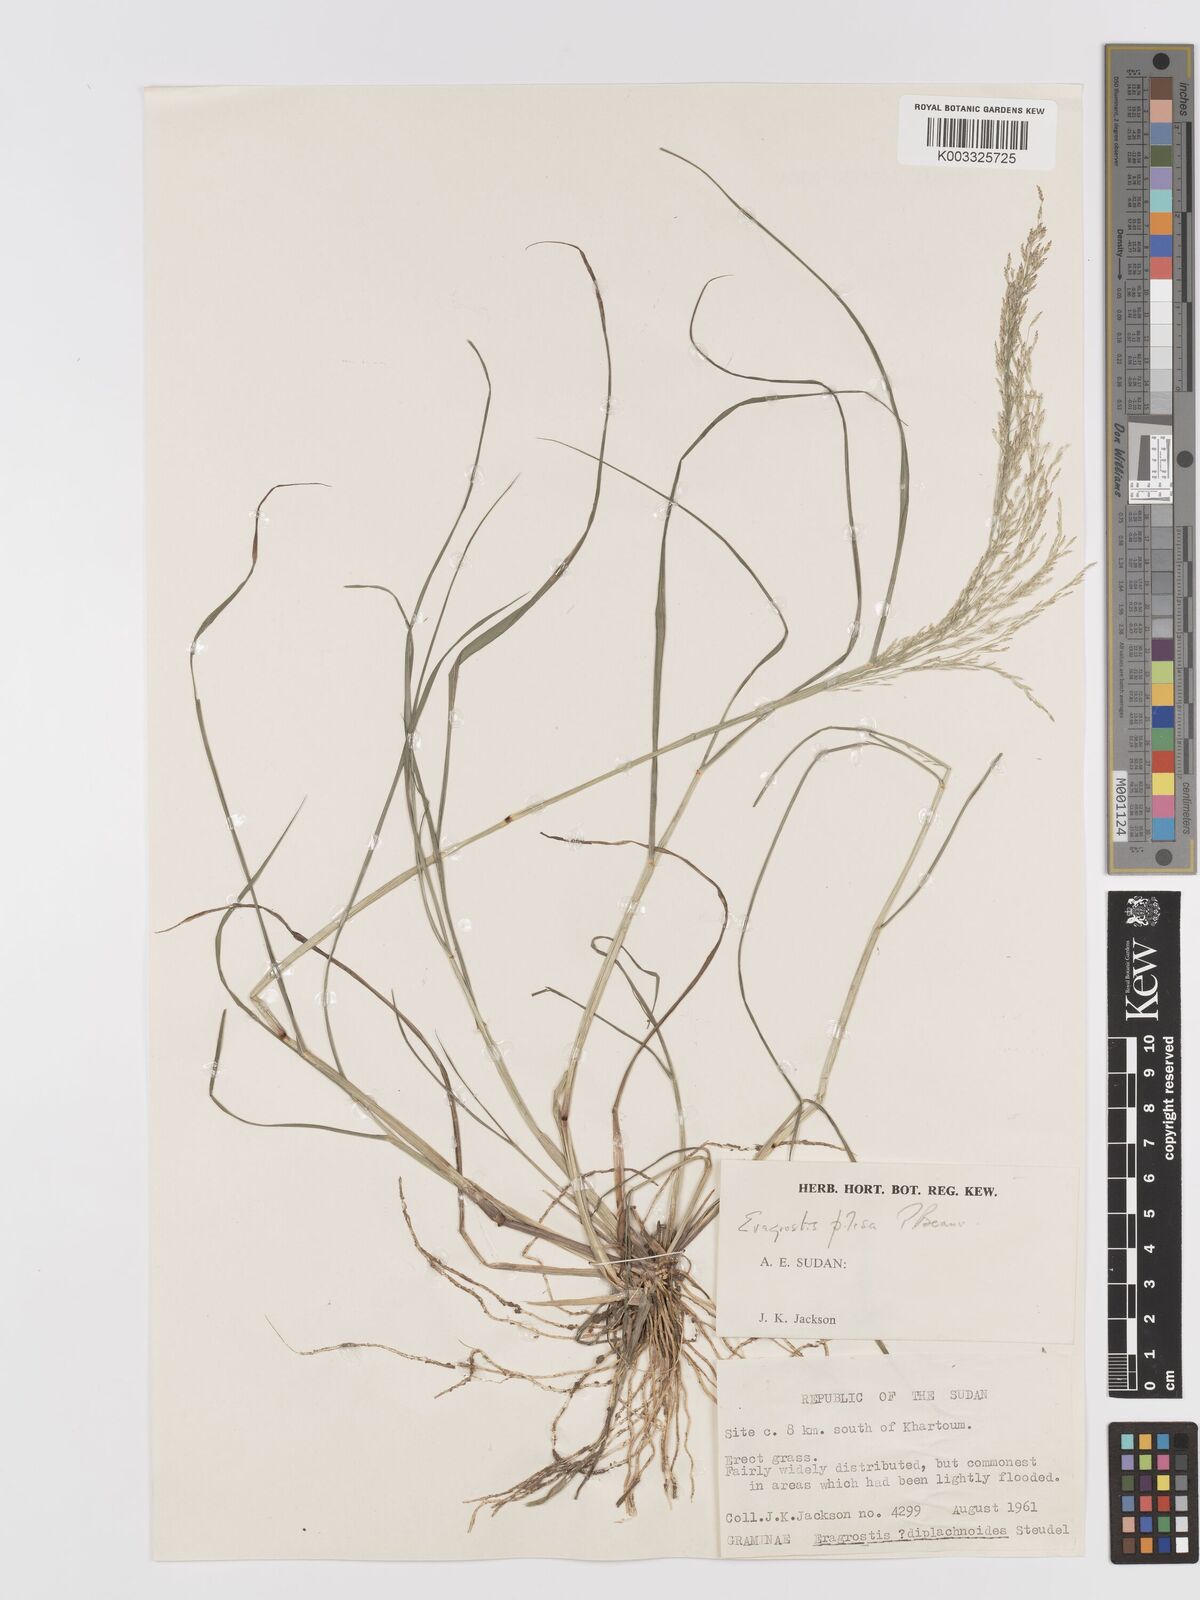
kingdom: Plantae
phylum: Tracheophyta
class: Liliopsida
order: Poales
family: Poaceae
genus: Eragrostis
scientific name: Eragrostis pilosa
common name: Indian lovegrass
